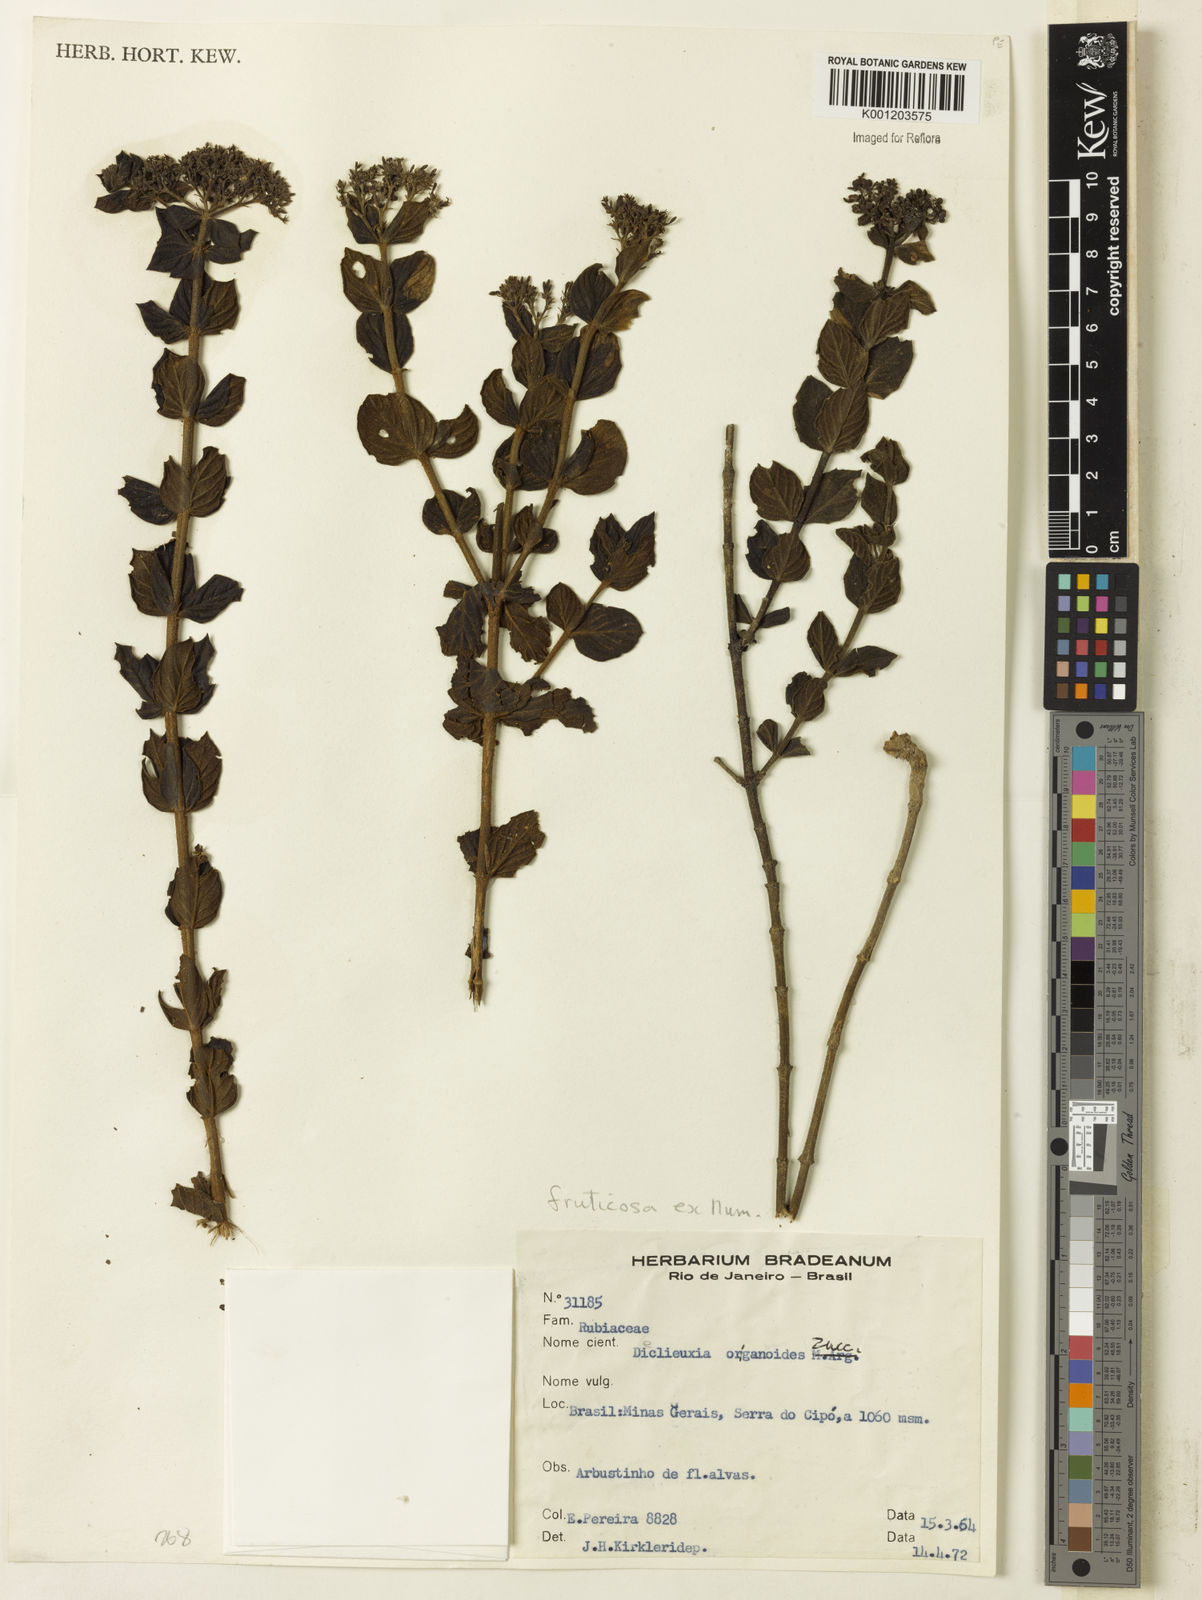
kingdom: Plantae
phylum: Tracheophyta
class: Magnoliopsida
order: Gentianales
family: Rubiaceae
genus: Declieuxia
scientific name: Declieuxia fruticosa
